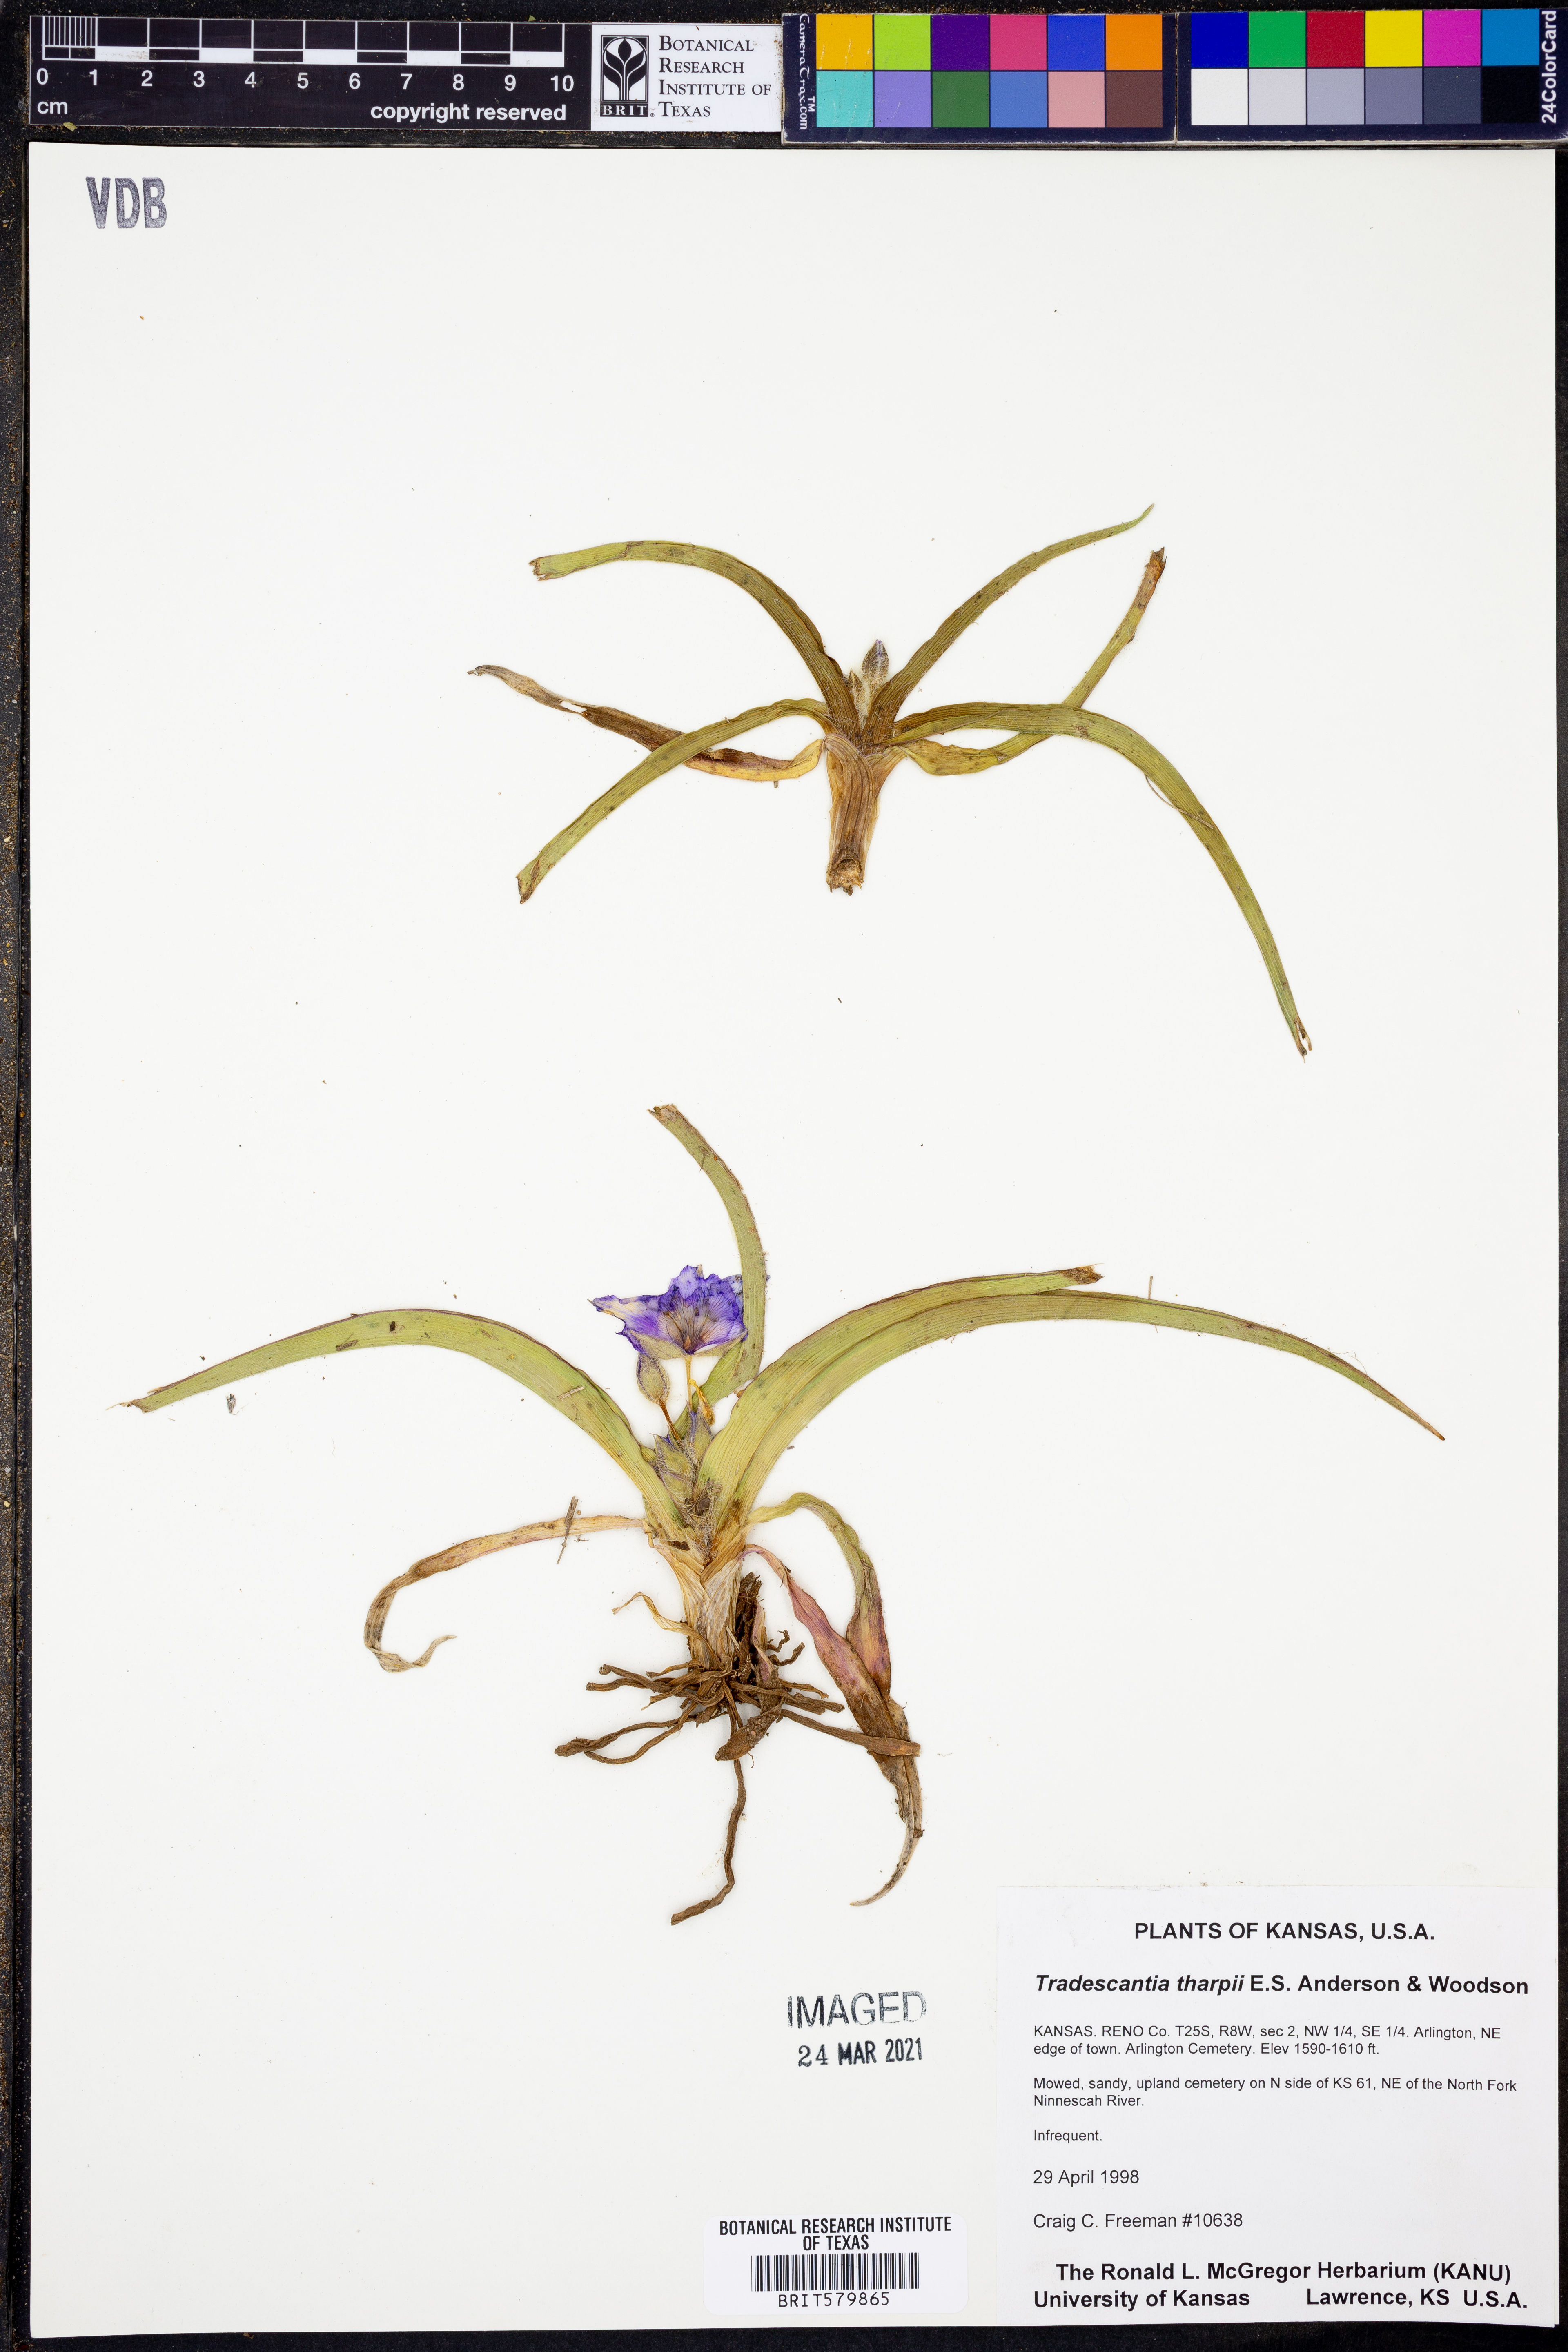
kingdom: Plantae
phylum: Tracheophyta
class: Liliopsida
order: Commelinales
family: Commelinaceae
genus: Tradescantia
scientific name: Tradescantia tharpii
